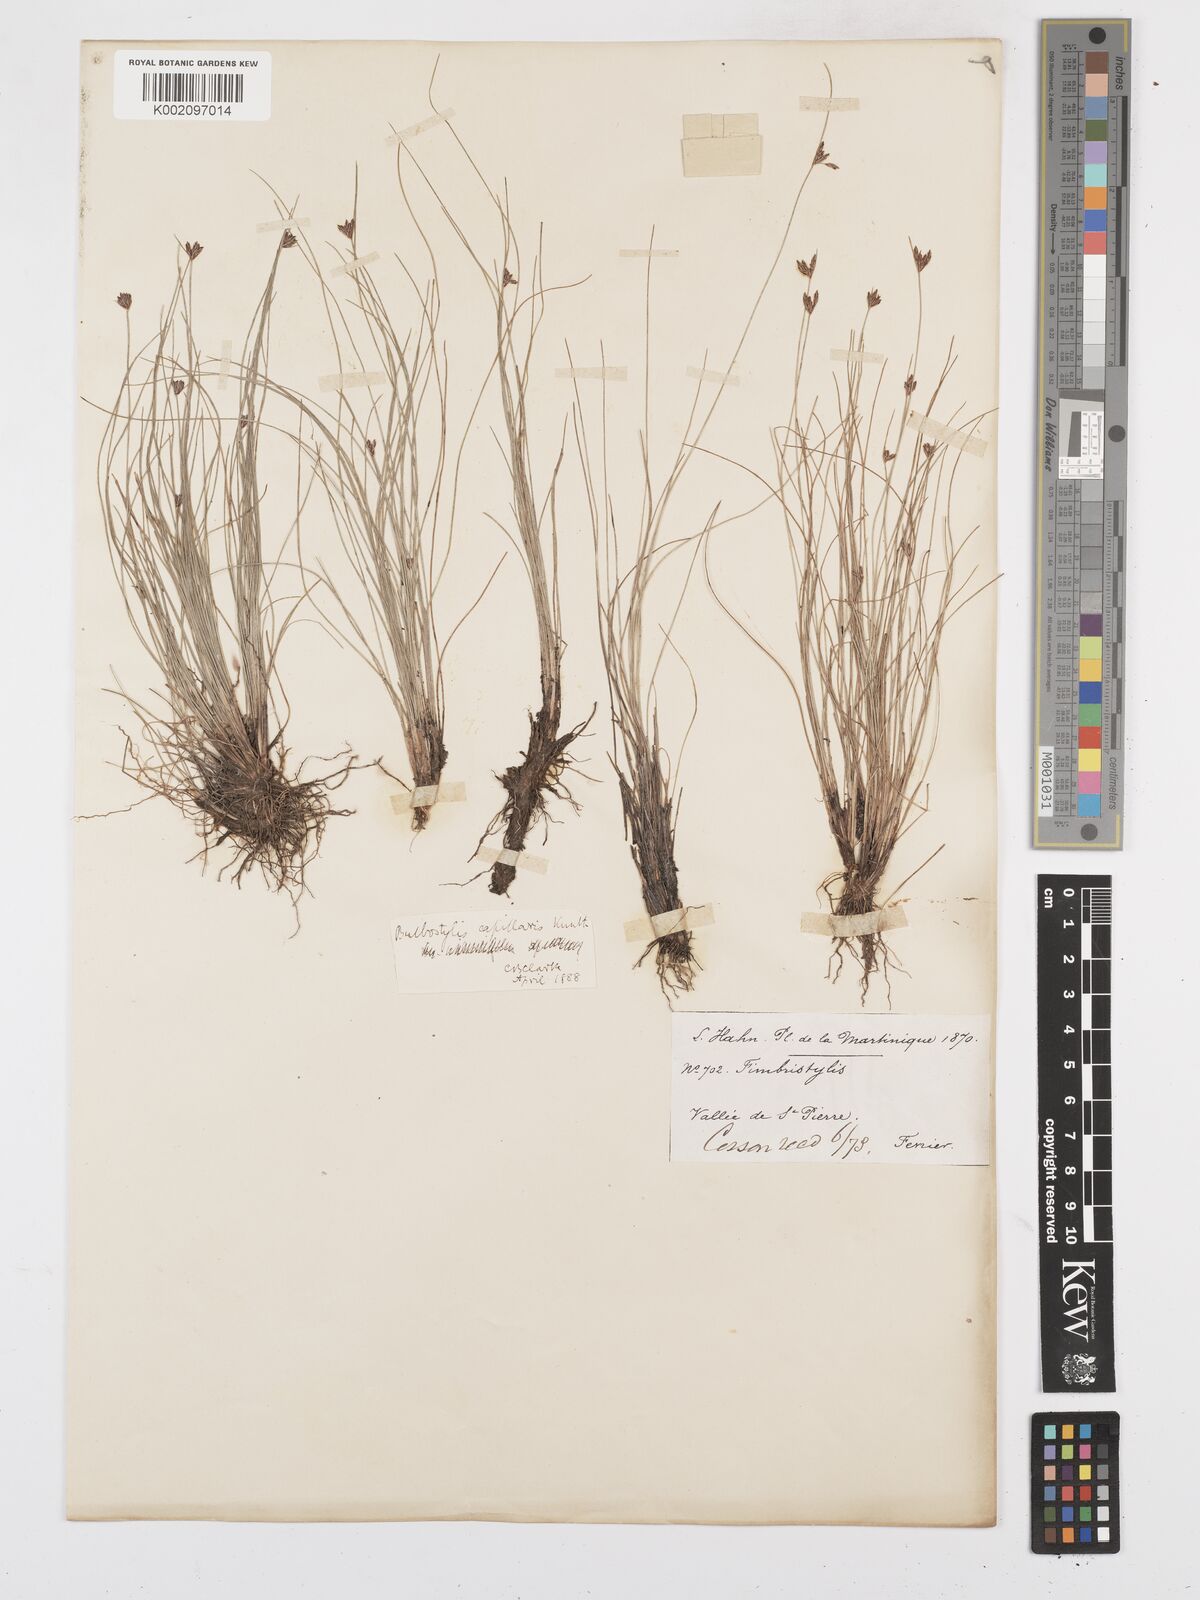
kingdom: Plantae
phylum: Tracheophyta
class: Liliopsida
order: Poales
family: Cyperaceae
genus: Bulbostylis
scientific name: Bulbostylis capillaris
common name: Densetuft hairsedge
